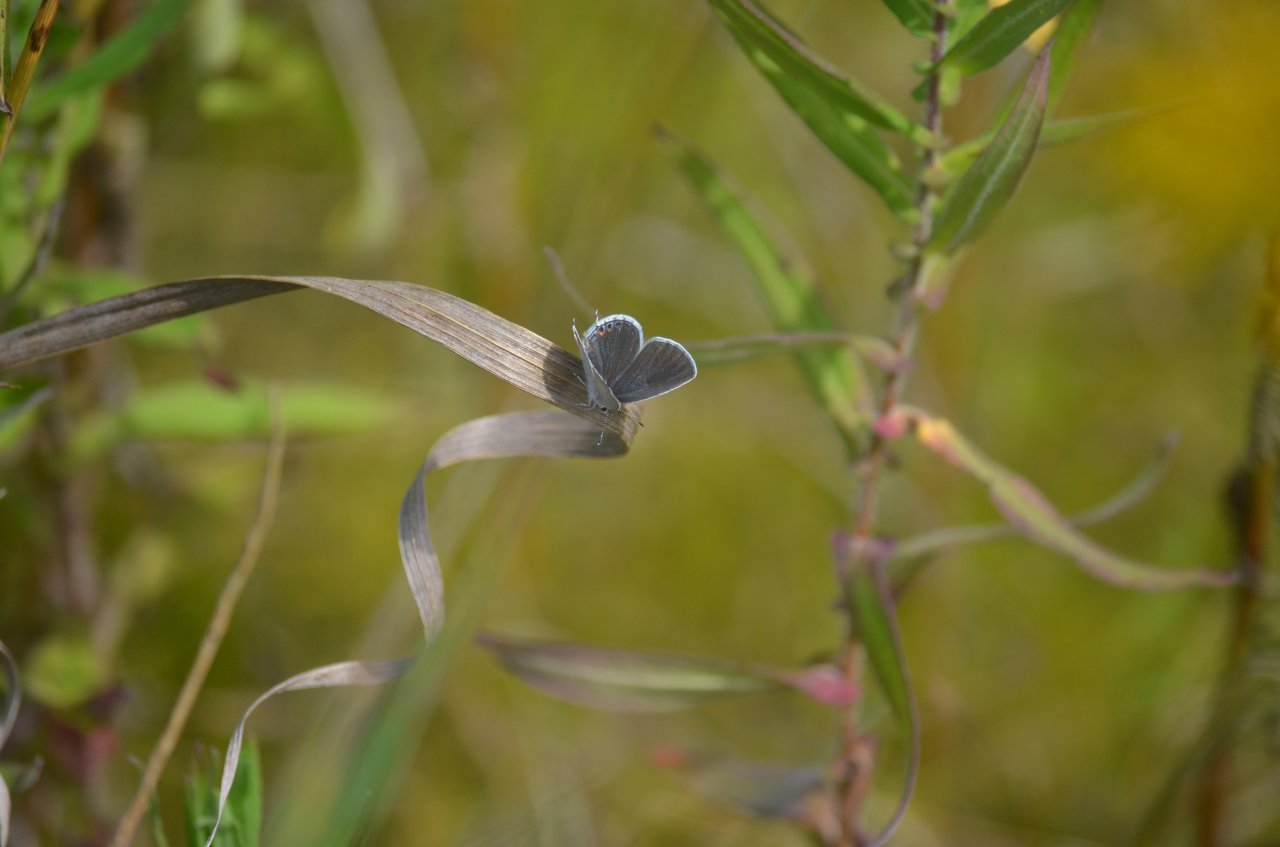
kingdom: Animalia
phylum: Arthropoda
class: Insecta
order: Lepidoptera
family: Lycaenidae
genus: Elkalyce
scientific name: Elkalyce comyntas
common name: Eastern Tailed-Blue
